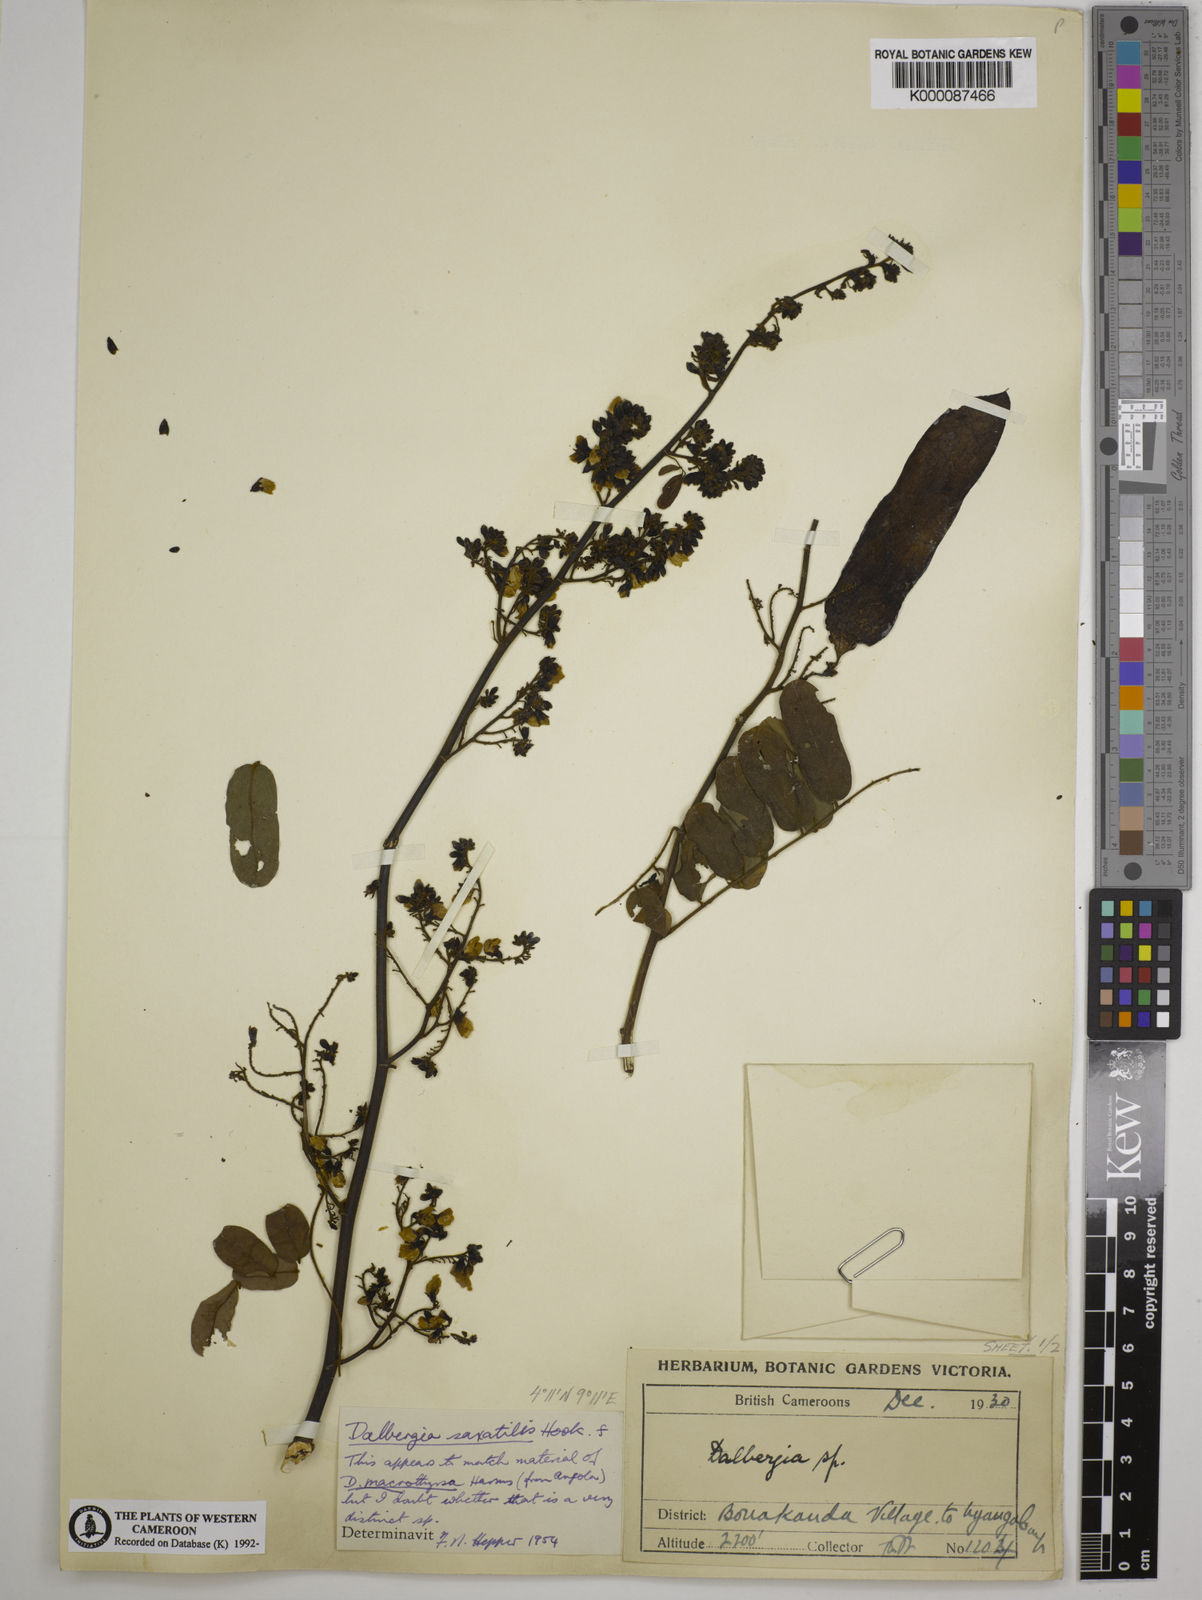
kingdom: Plantae
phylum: Tracheophyta
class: Magnoliopsida
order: Fabales
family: Fabaceae
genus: Dalbergia
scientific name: Dalbergia saxatilis
